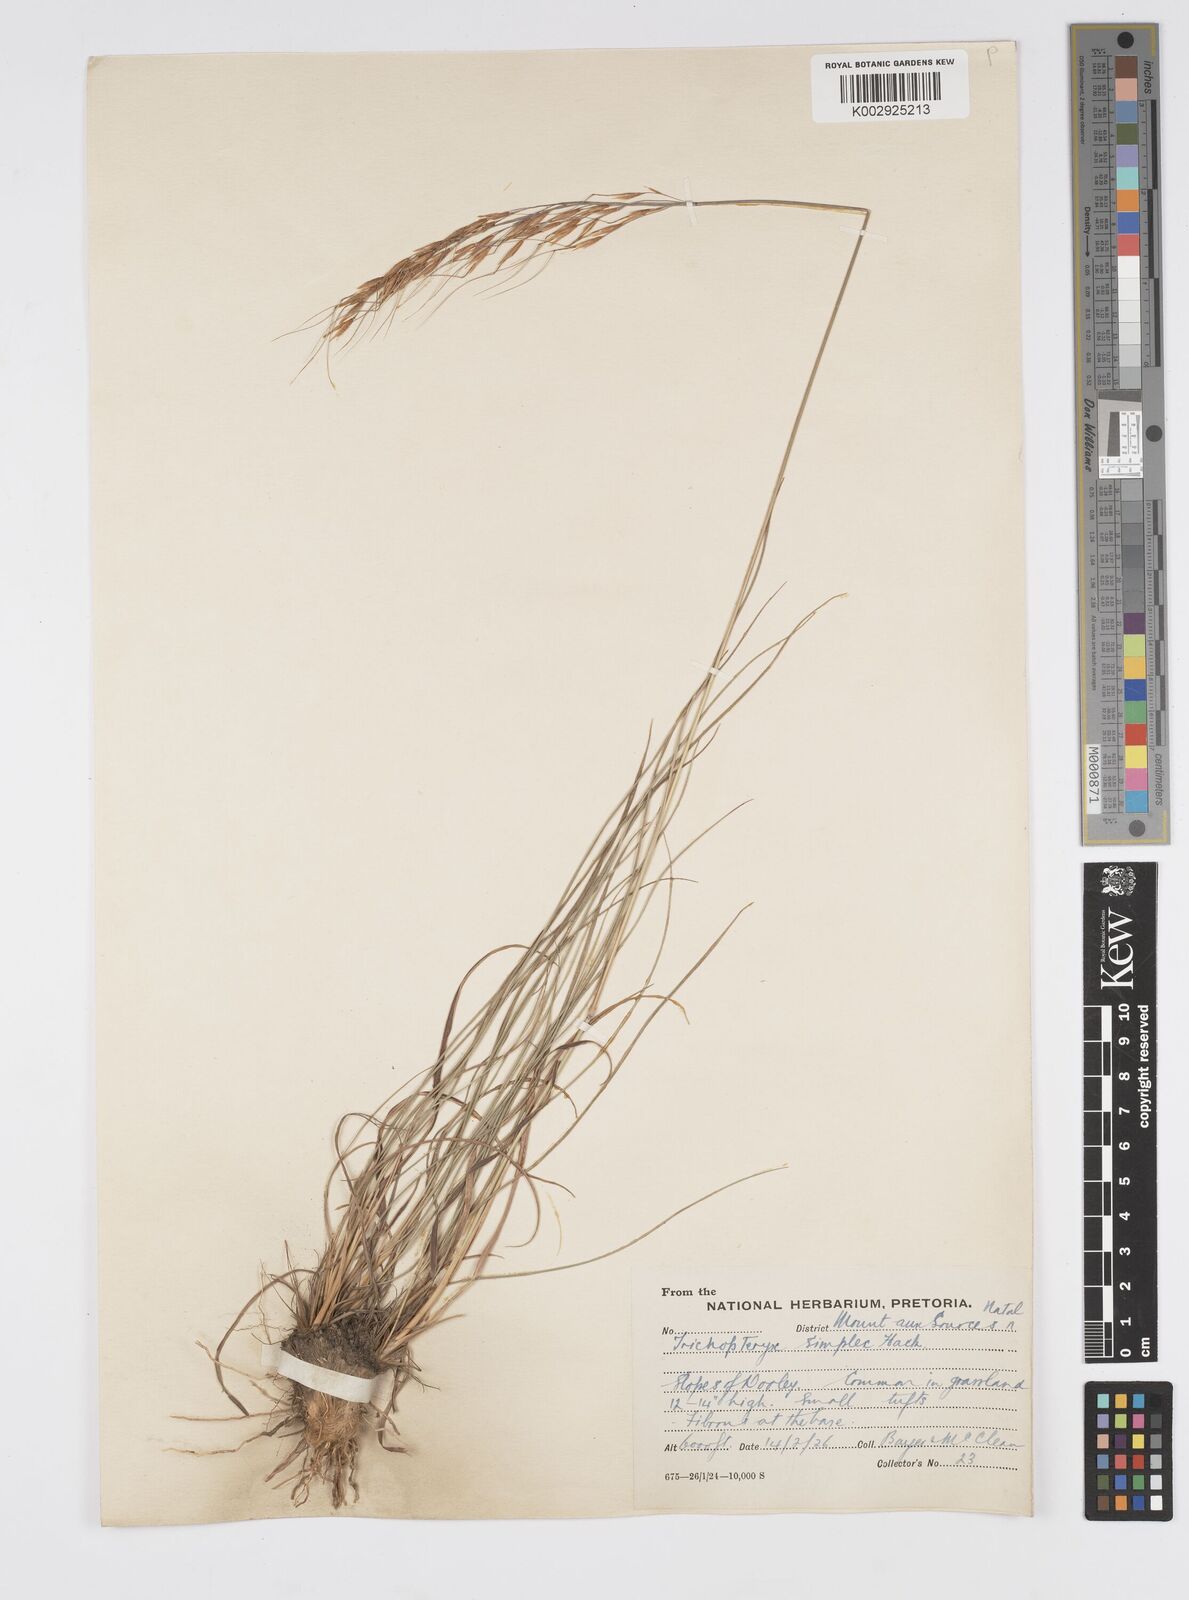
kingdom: Plantae
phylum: Tracheophyta
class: Liliopsida
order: Poales
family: Poaceae
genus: Loudetia
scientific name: Loudetia simplex
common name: Common russet grass
